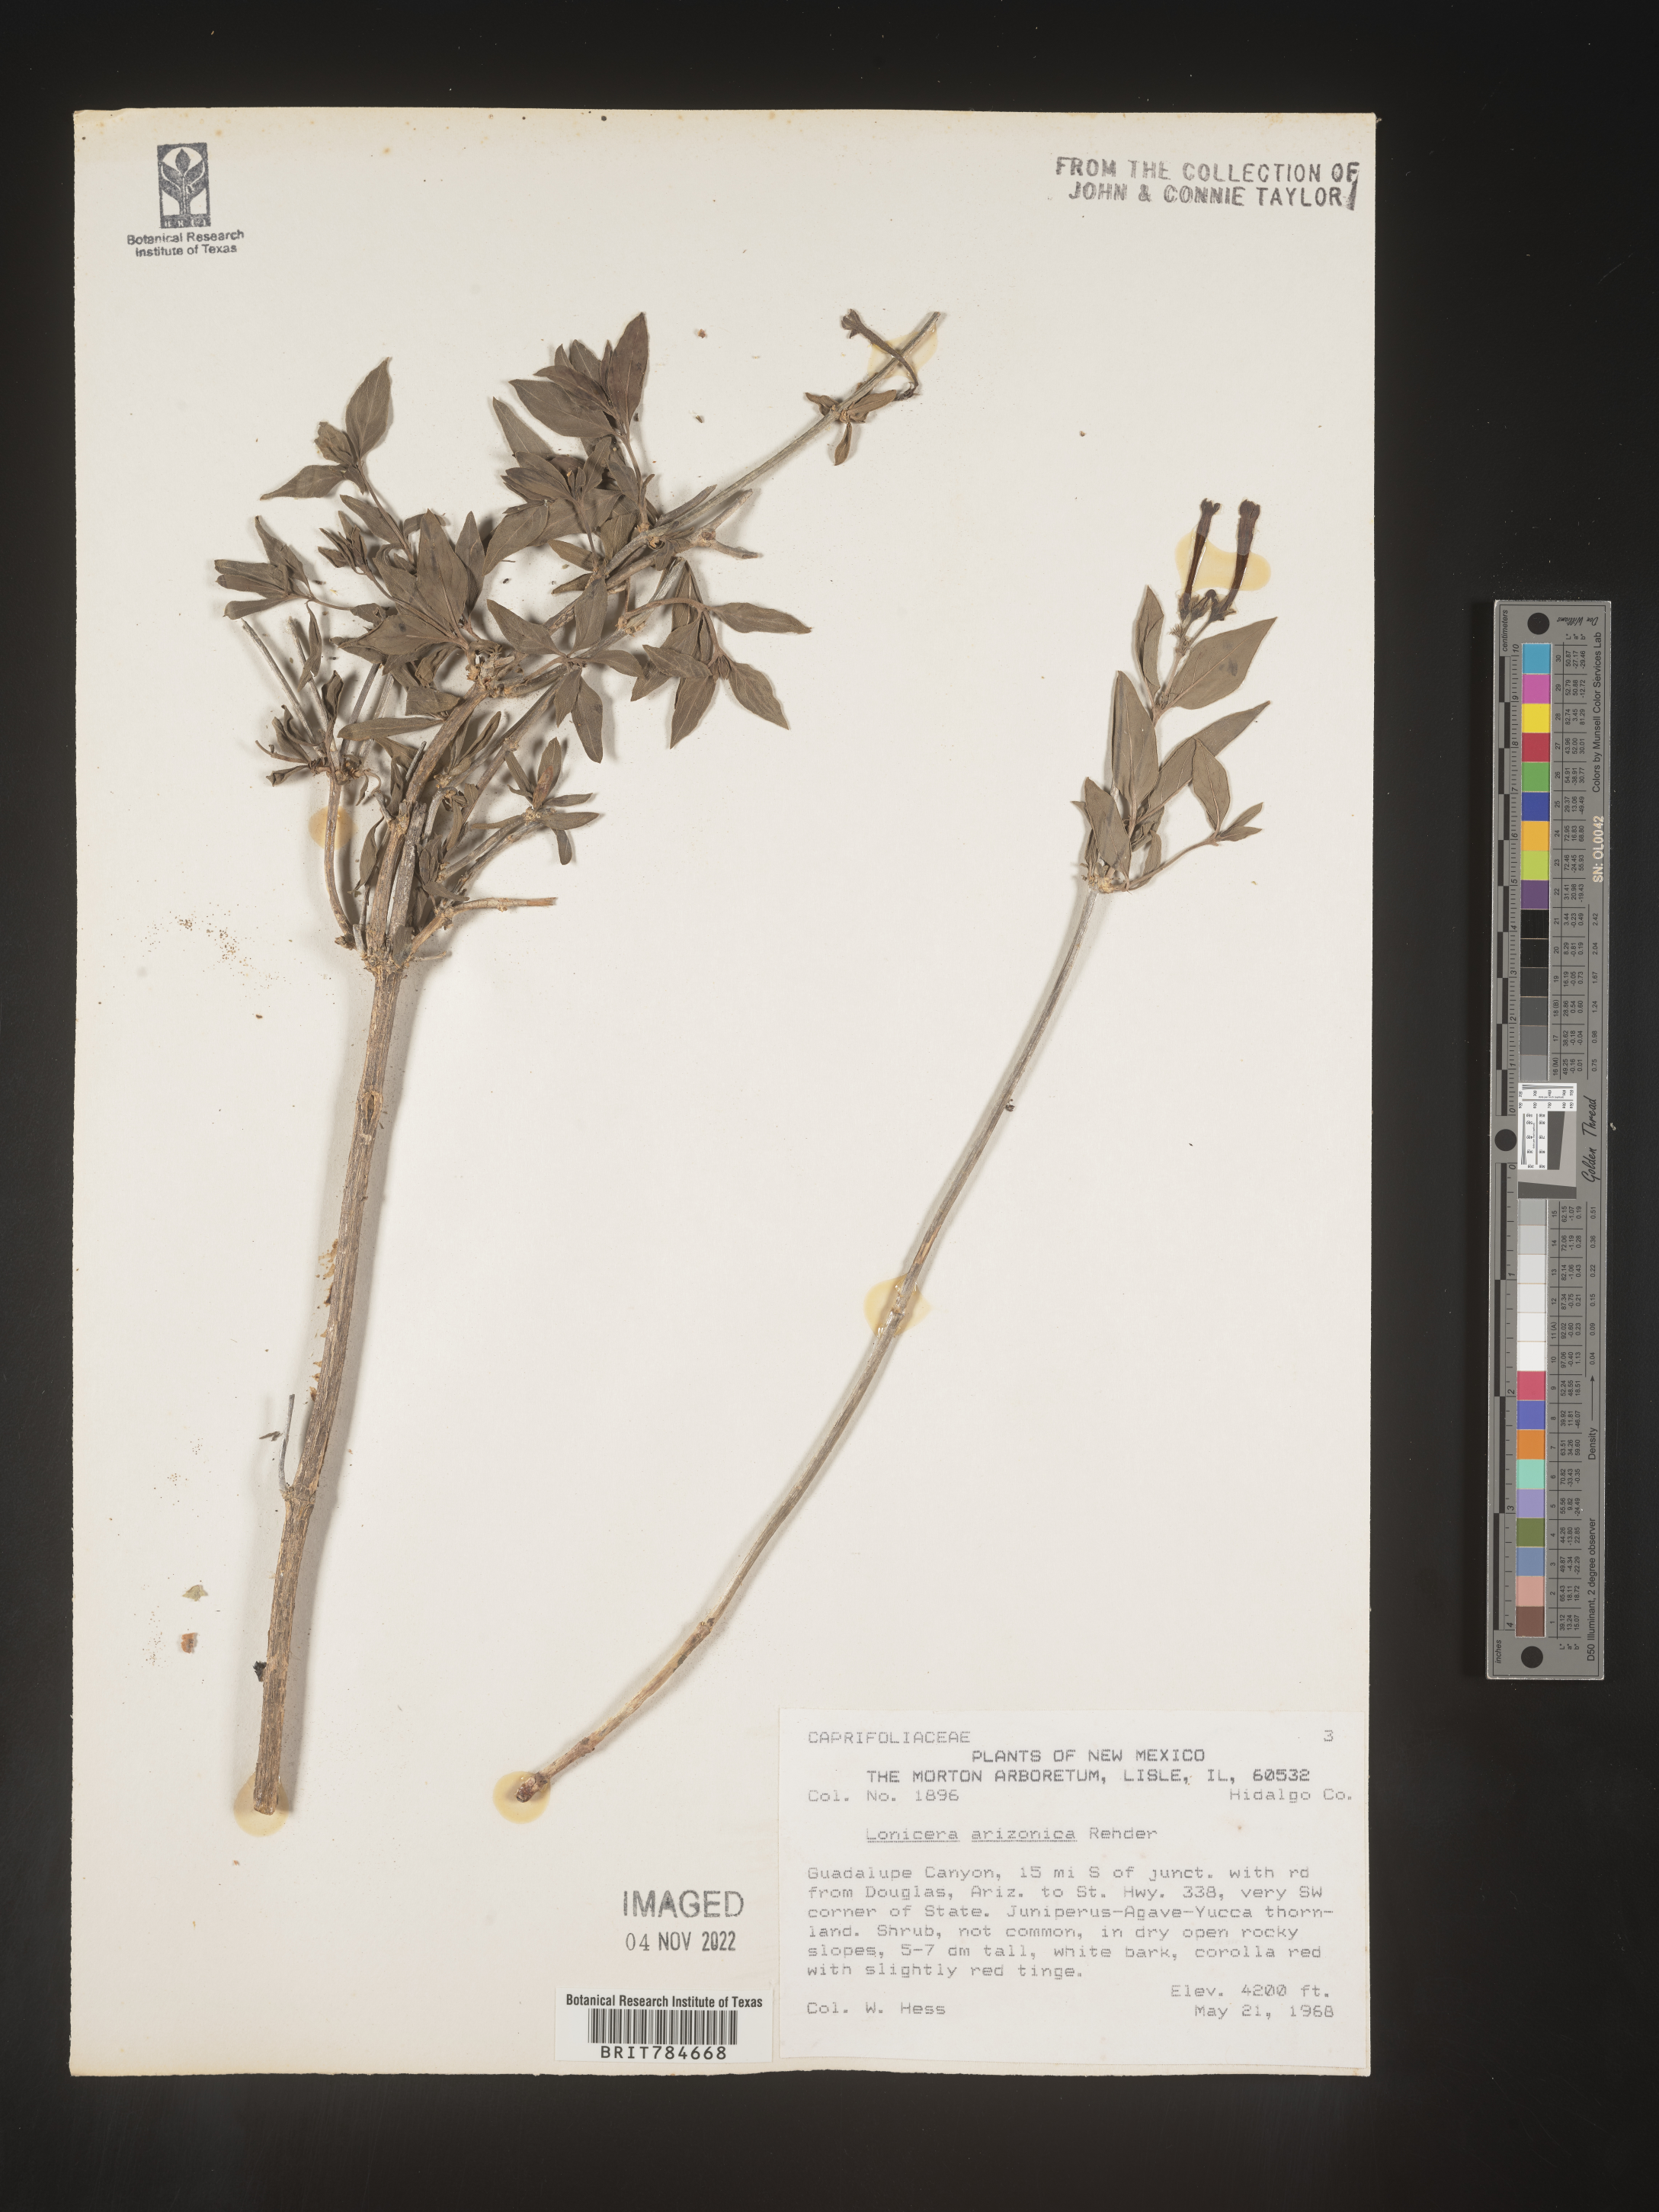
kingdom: Plantae
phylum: Tracheophyta
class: Magnoliopsida
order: Dipsacales
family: Caprifoliaceae
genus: Lonicera
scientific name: Lonicera arizonica
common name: Arizona honeysuckle
